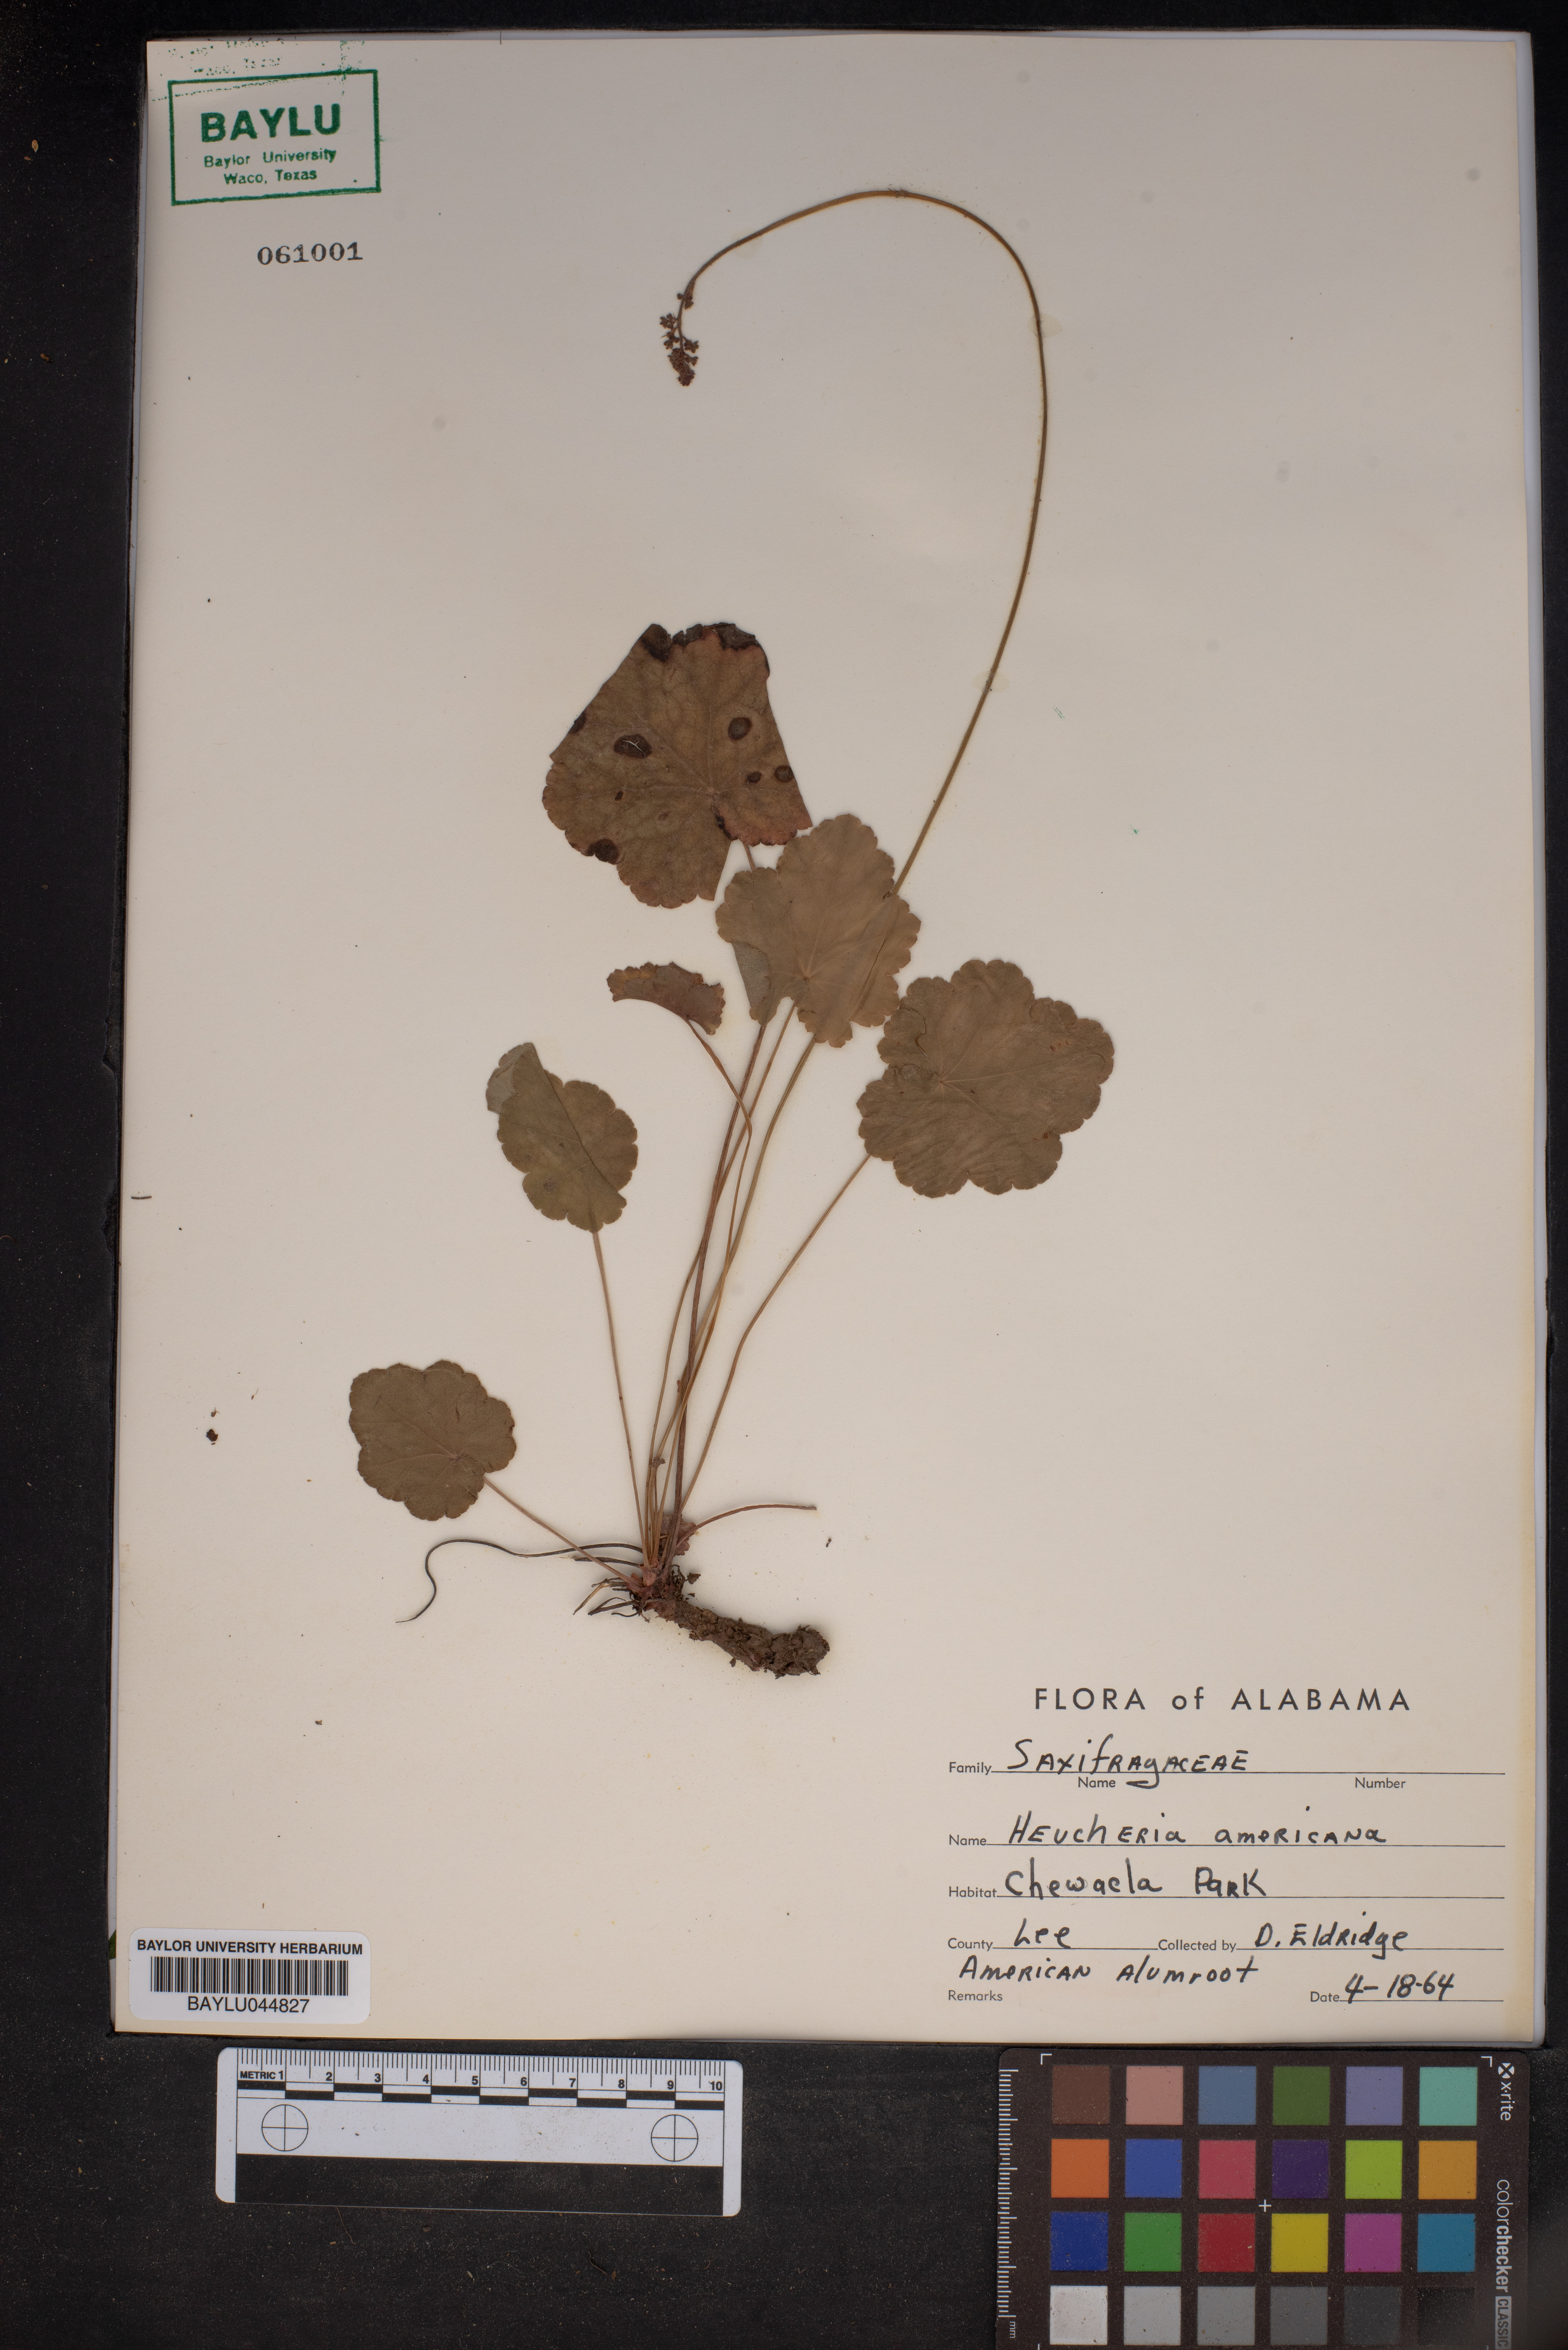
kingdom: Plantae
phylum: Tracheophyta
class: Magnoliopsida
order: Saxifragales
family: Saxifragaceae
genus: Heuchera
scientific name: Heuchera americana
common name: Alumroot
